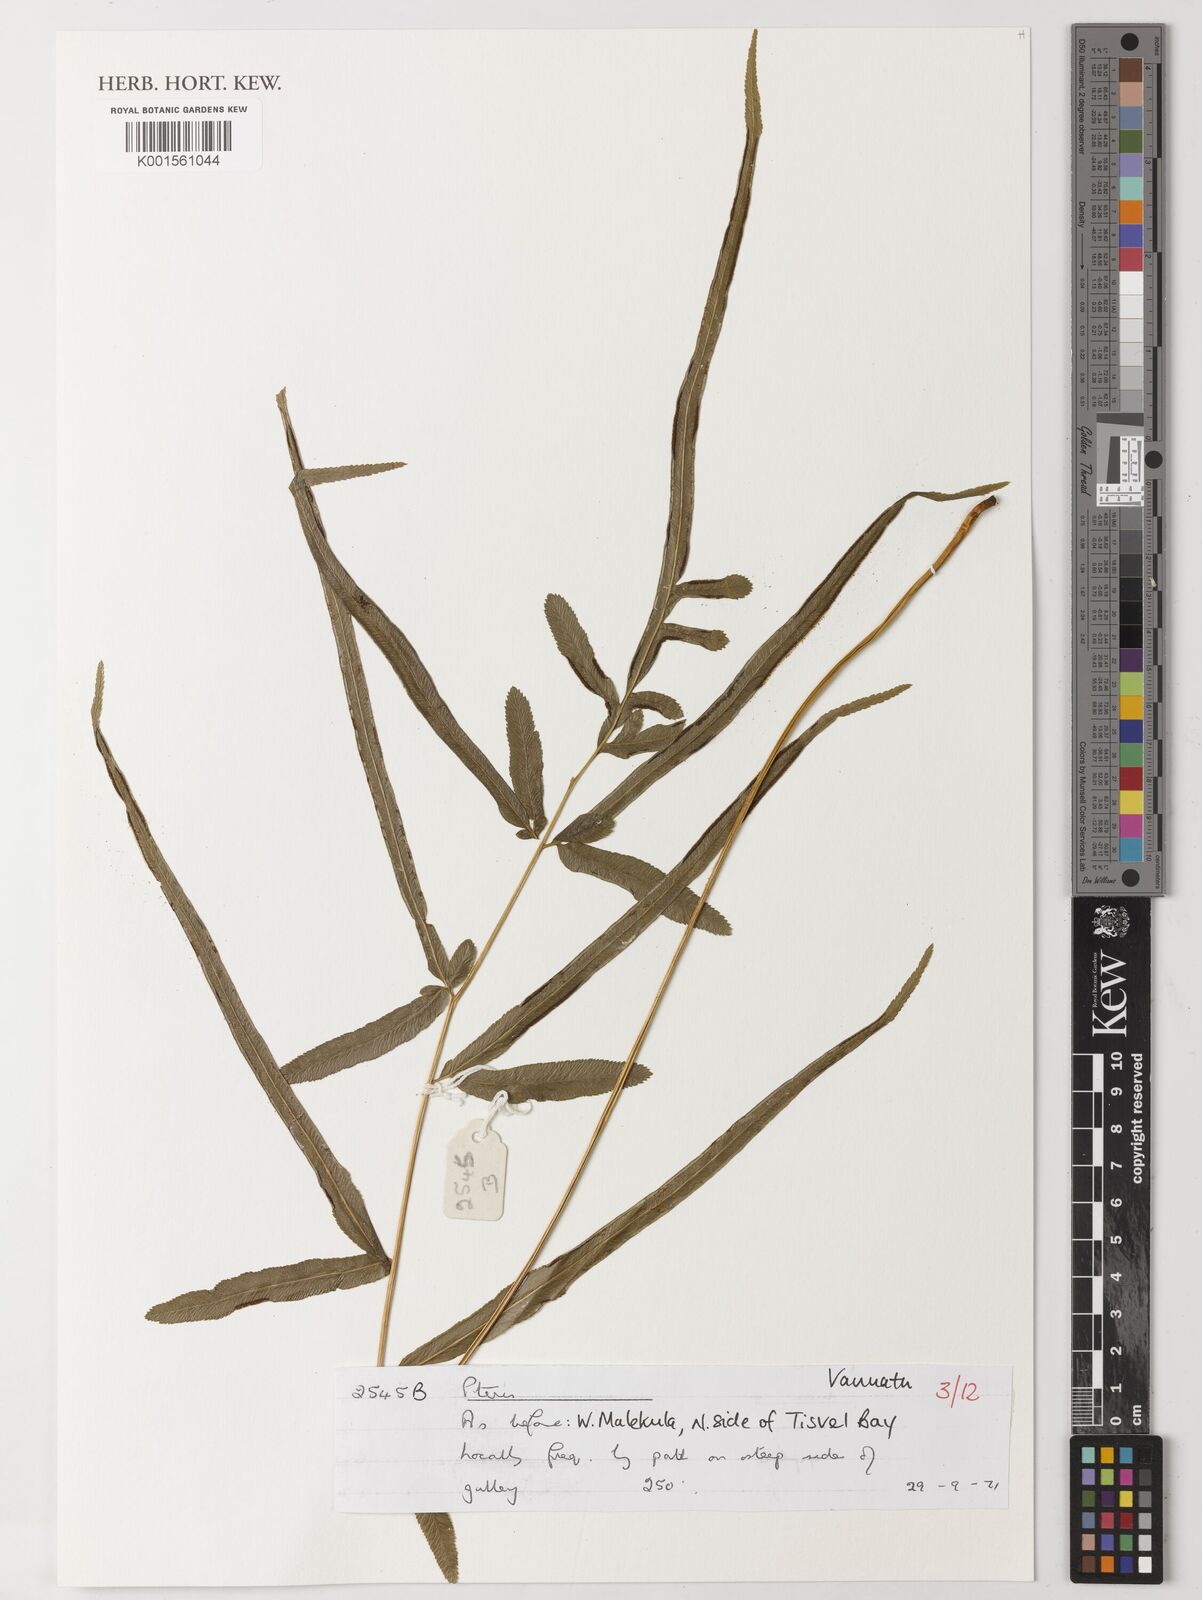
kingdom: Plantae
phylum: Tracheophyta
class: Polypodiopsida
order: Polypodiales
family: Pteridaceae
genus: Pteris
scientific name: Pteris
